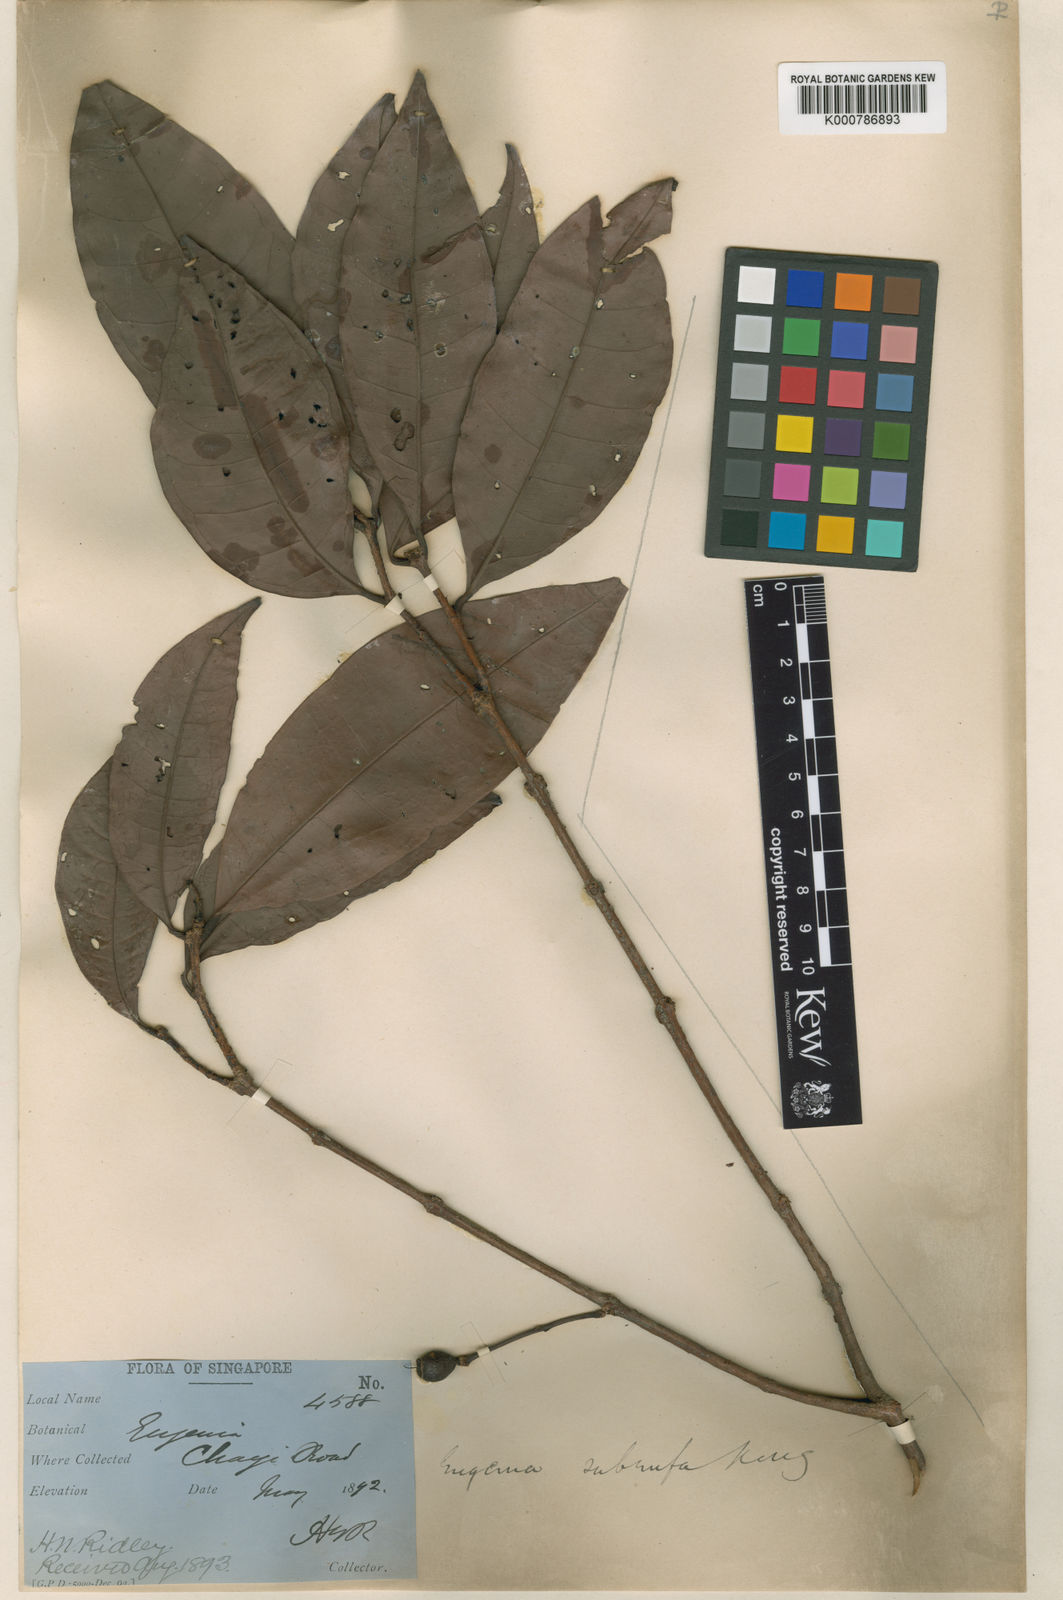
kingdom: Plantae
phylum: Tracheophyta
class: Magnoliopsida
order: Myrtales
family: Myrtaceae
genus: Syzygium
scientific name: Syzygium dyerianum
